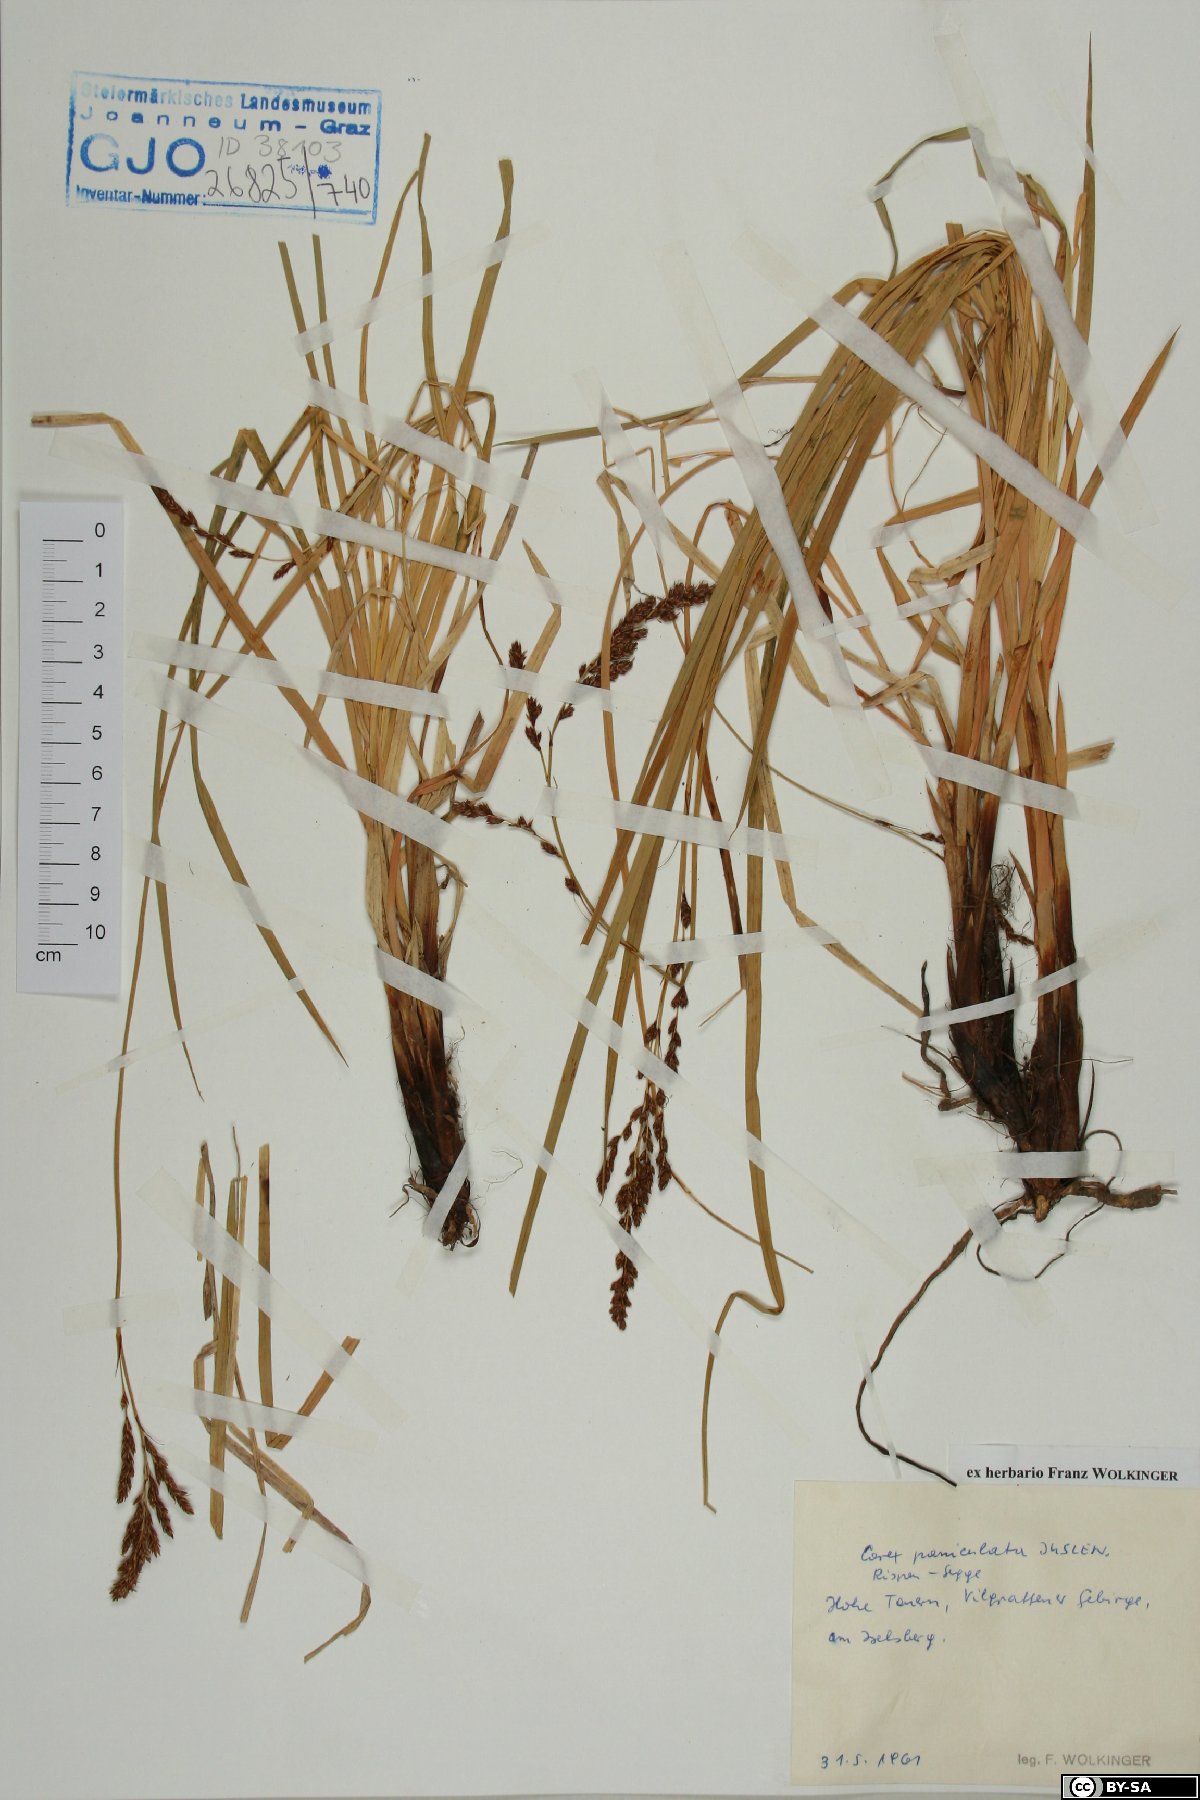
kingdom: Plantae
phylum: Tracheophyta
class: Liliopsida
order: Poales
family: Cyperaceae
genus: Carex
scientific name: Carex paniculata
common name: Greater tussock-sedge
